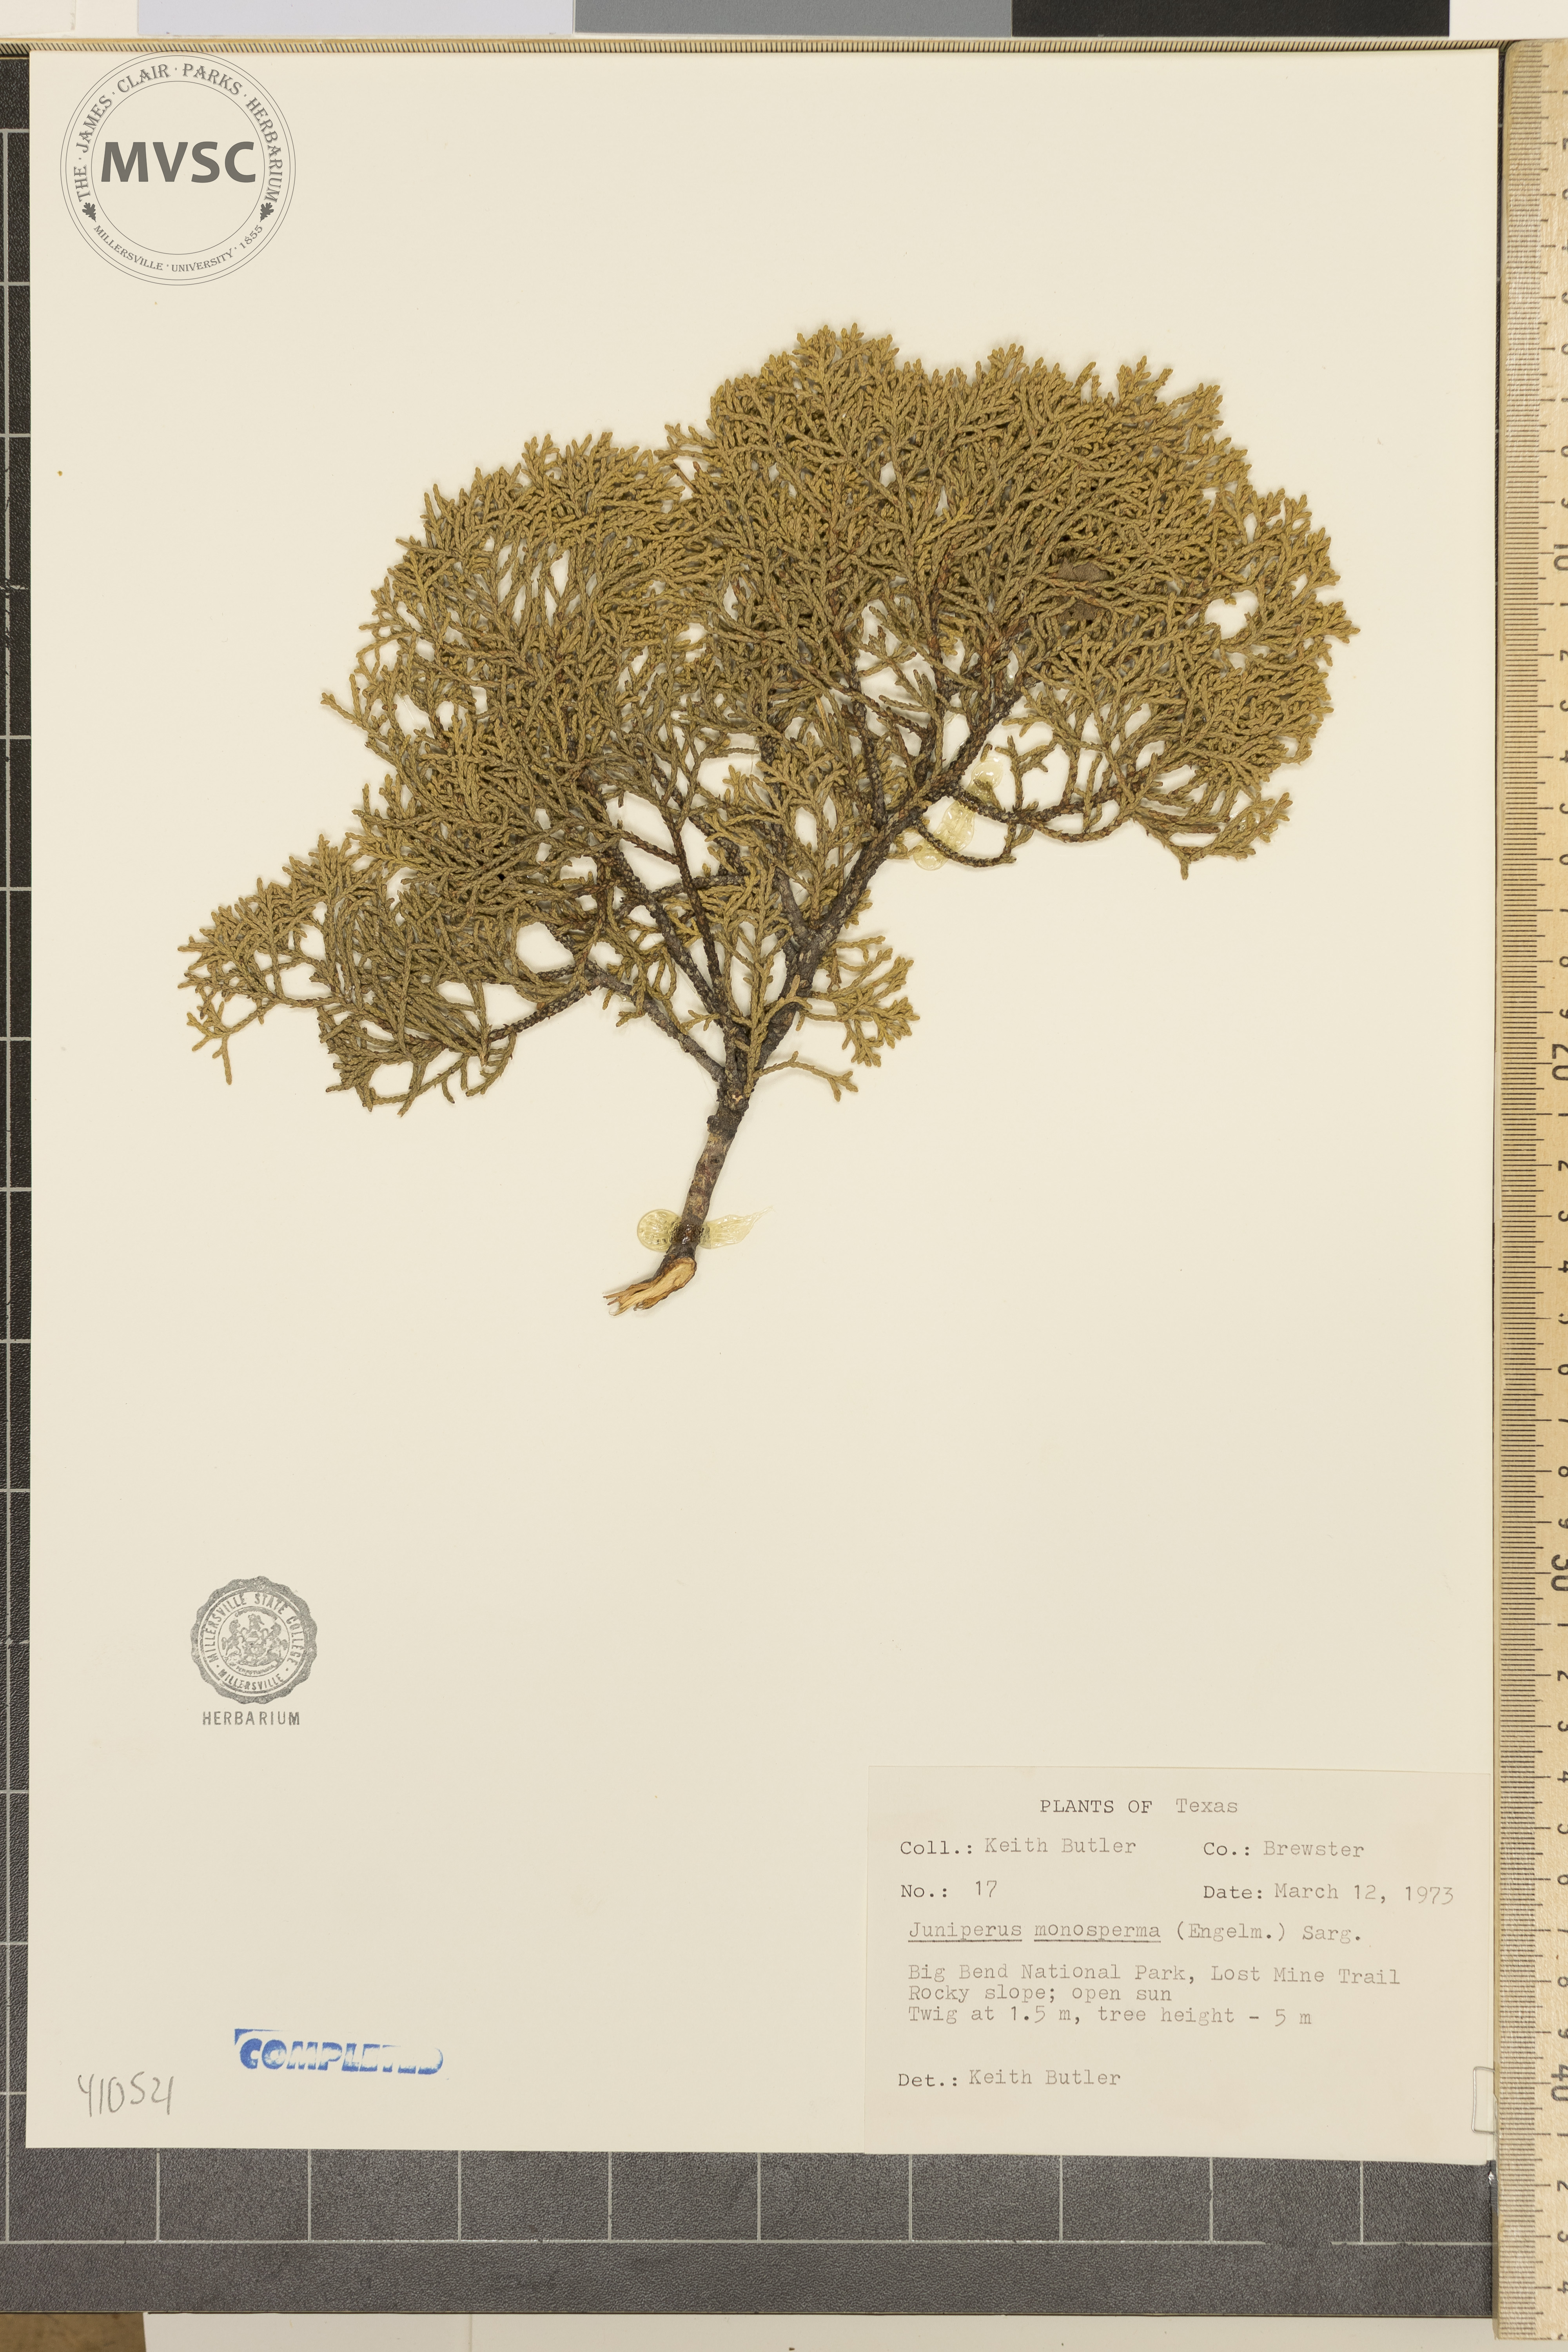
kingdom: Plantae
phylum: Tracheophyta
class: Pinopsida
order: Pinales
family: Cupressaceae
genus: Juniperus
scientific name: Juniperus monosperma
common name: One-seed juniper
